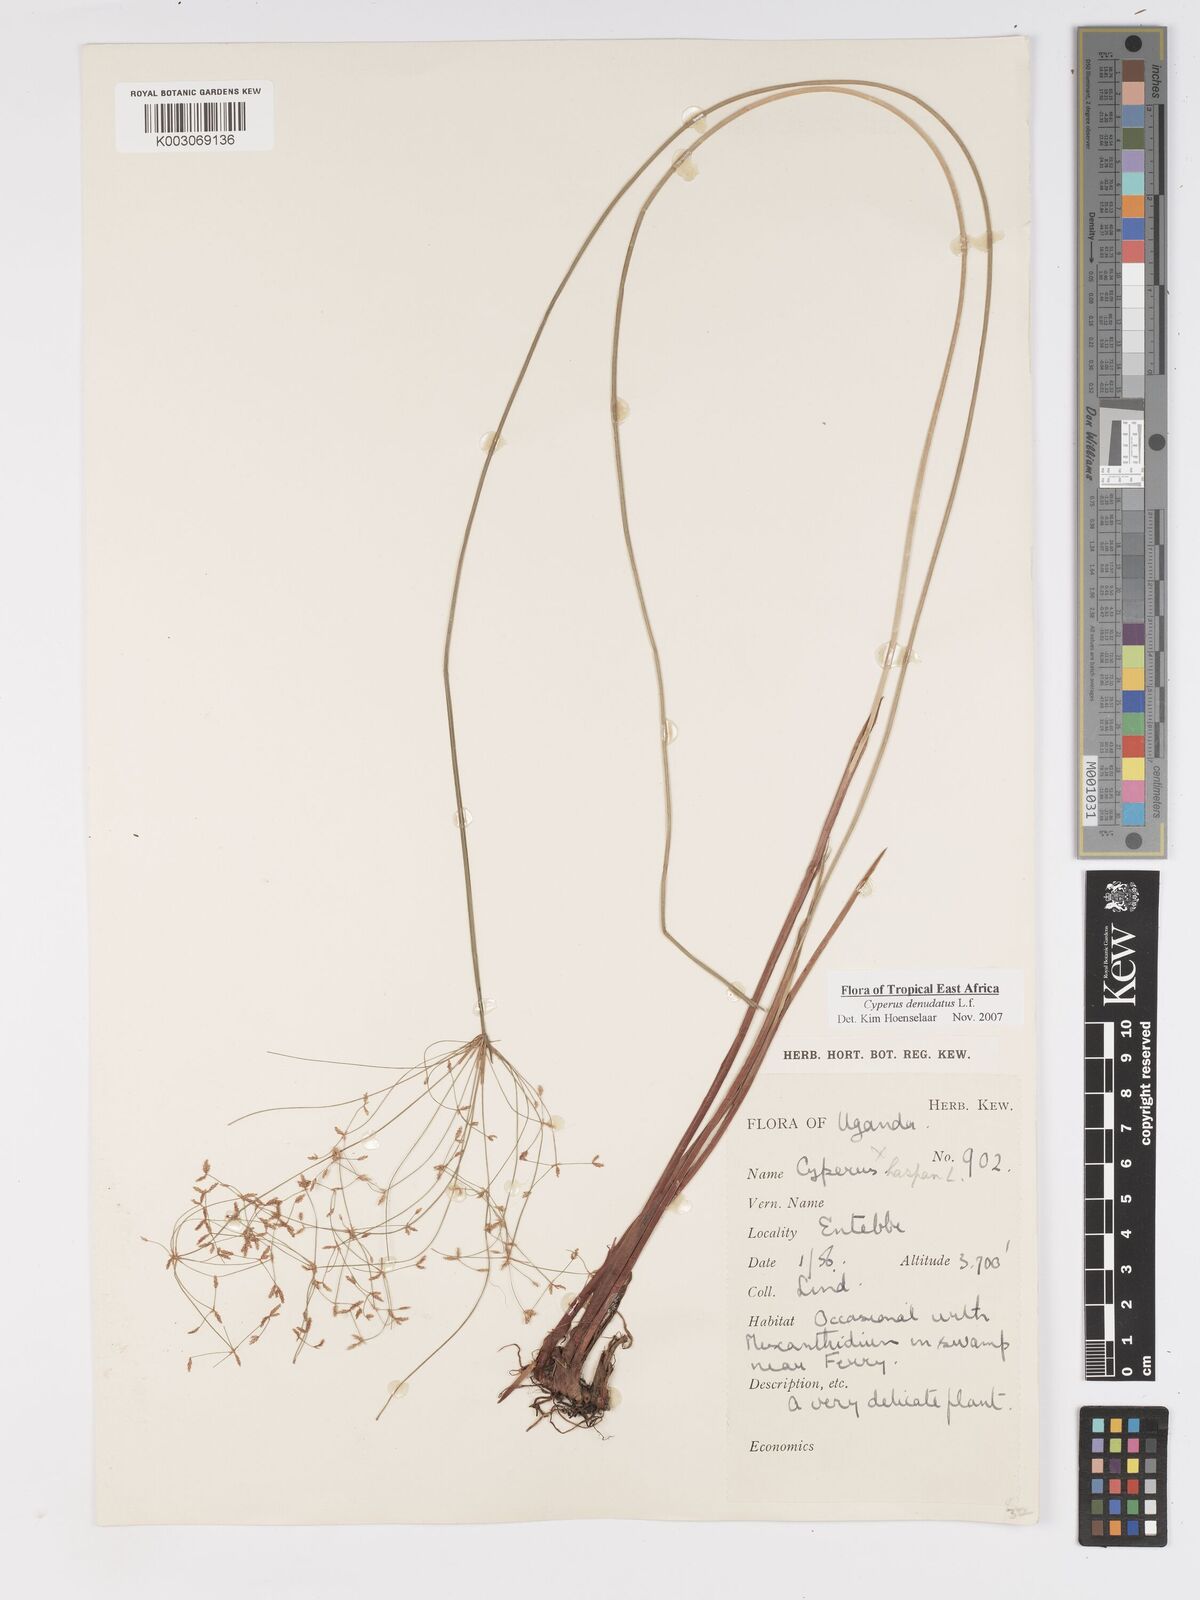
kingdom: Plantae
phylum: Tracheophyta
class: Liliopsida
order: Poales
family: Cyperaceae
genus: Cyperus
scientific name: Cyperus platycaulis
